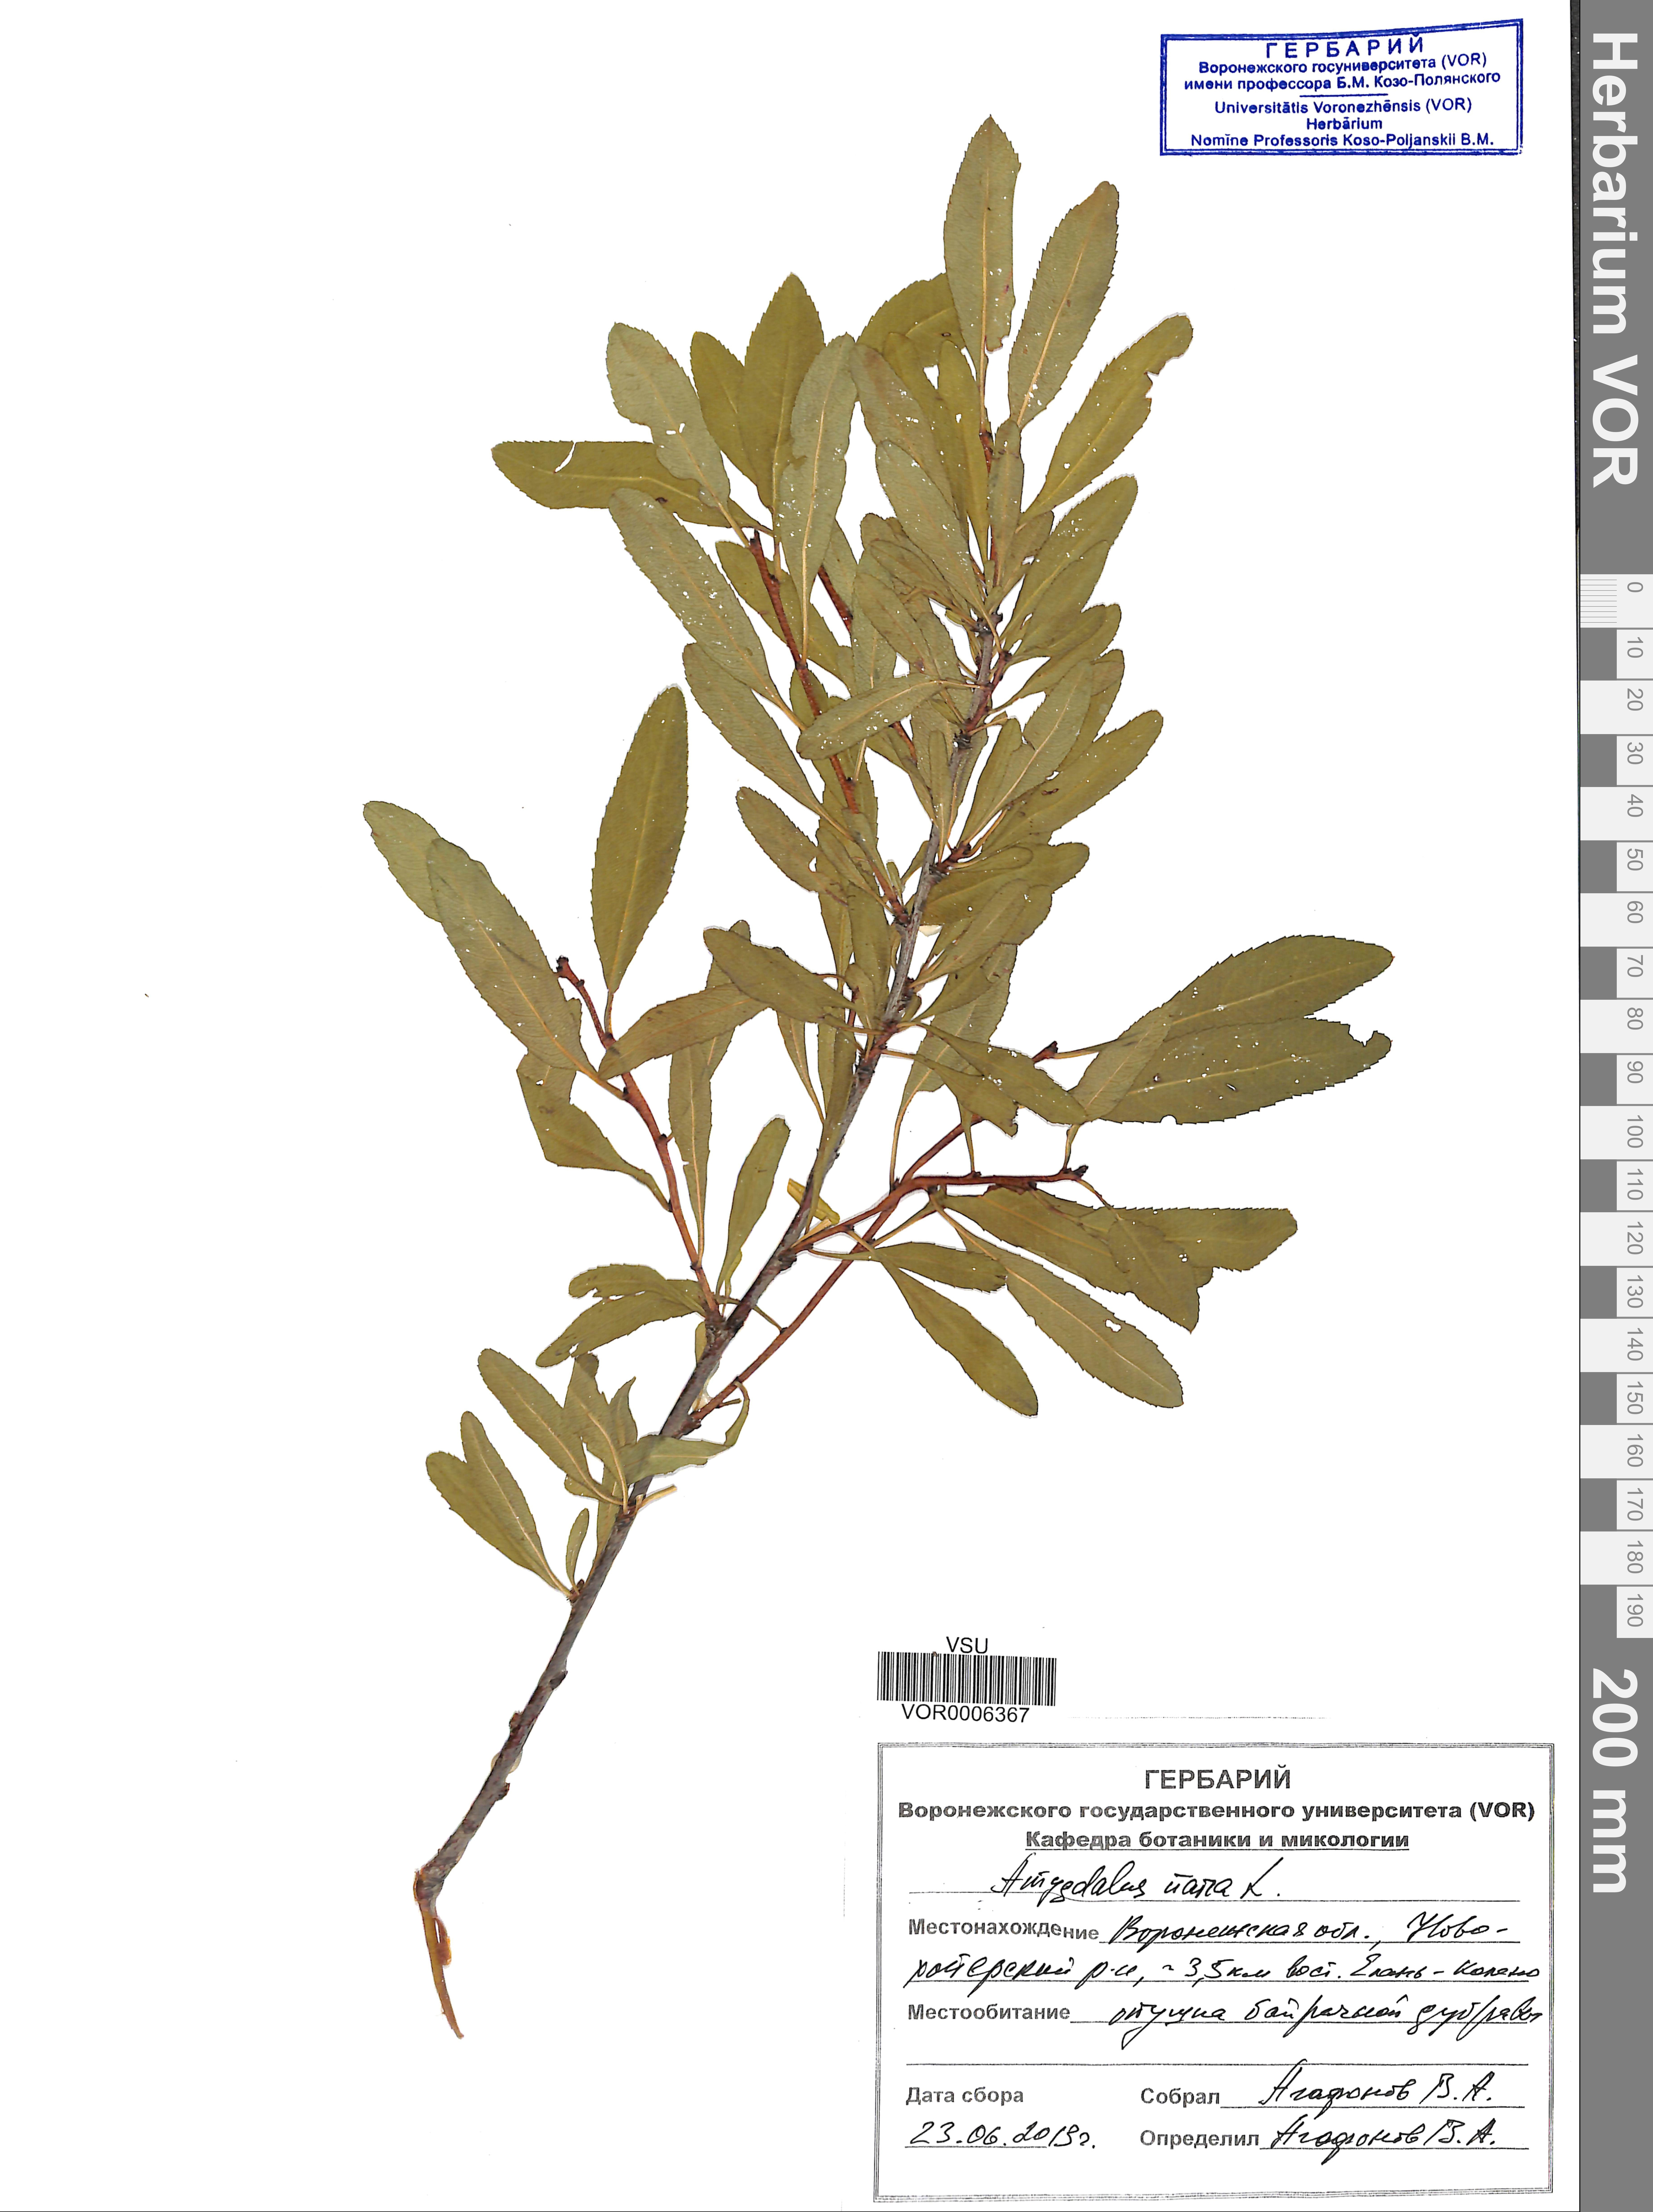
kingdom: Plantae
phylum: Tracheophyta
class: Magnoliopsida
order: Rosales
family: Rosaceae
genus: Prunus
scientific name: Prunus tenella
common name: Dwarf russian almond
